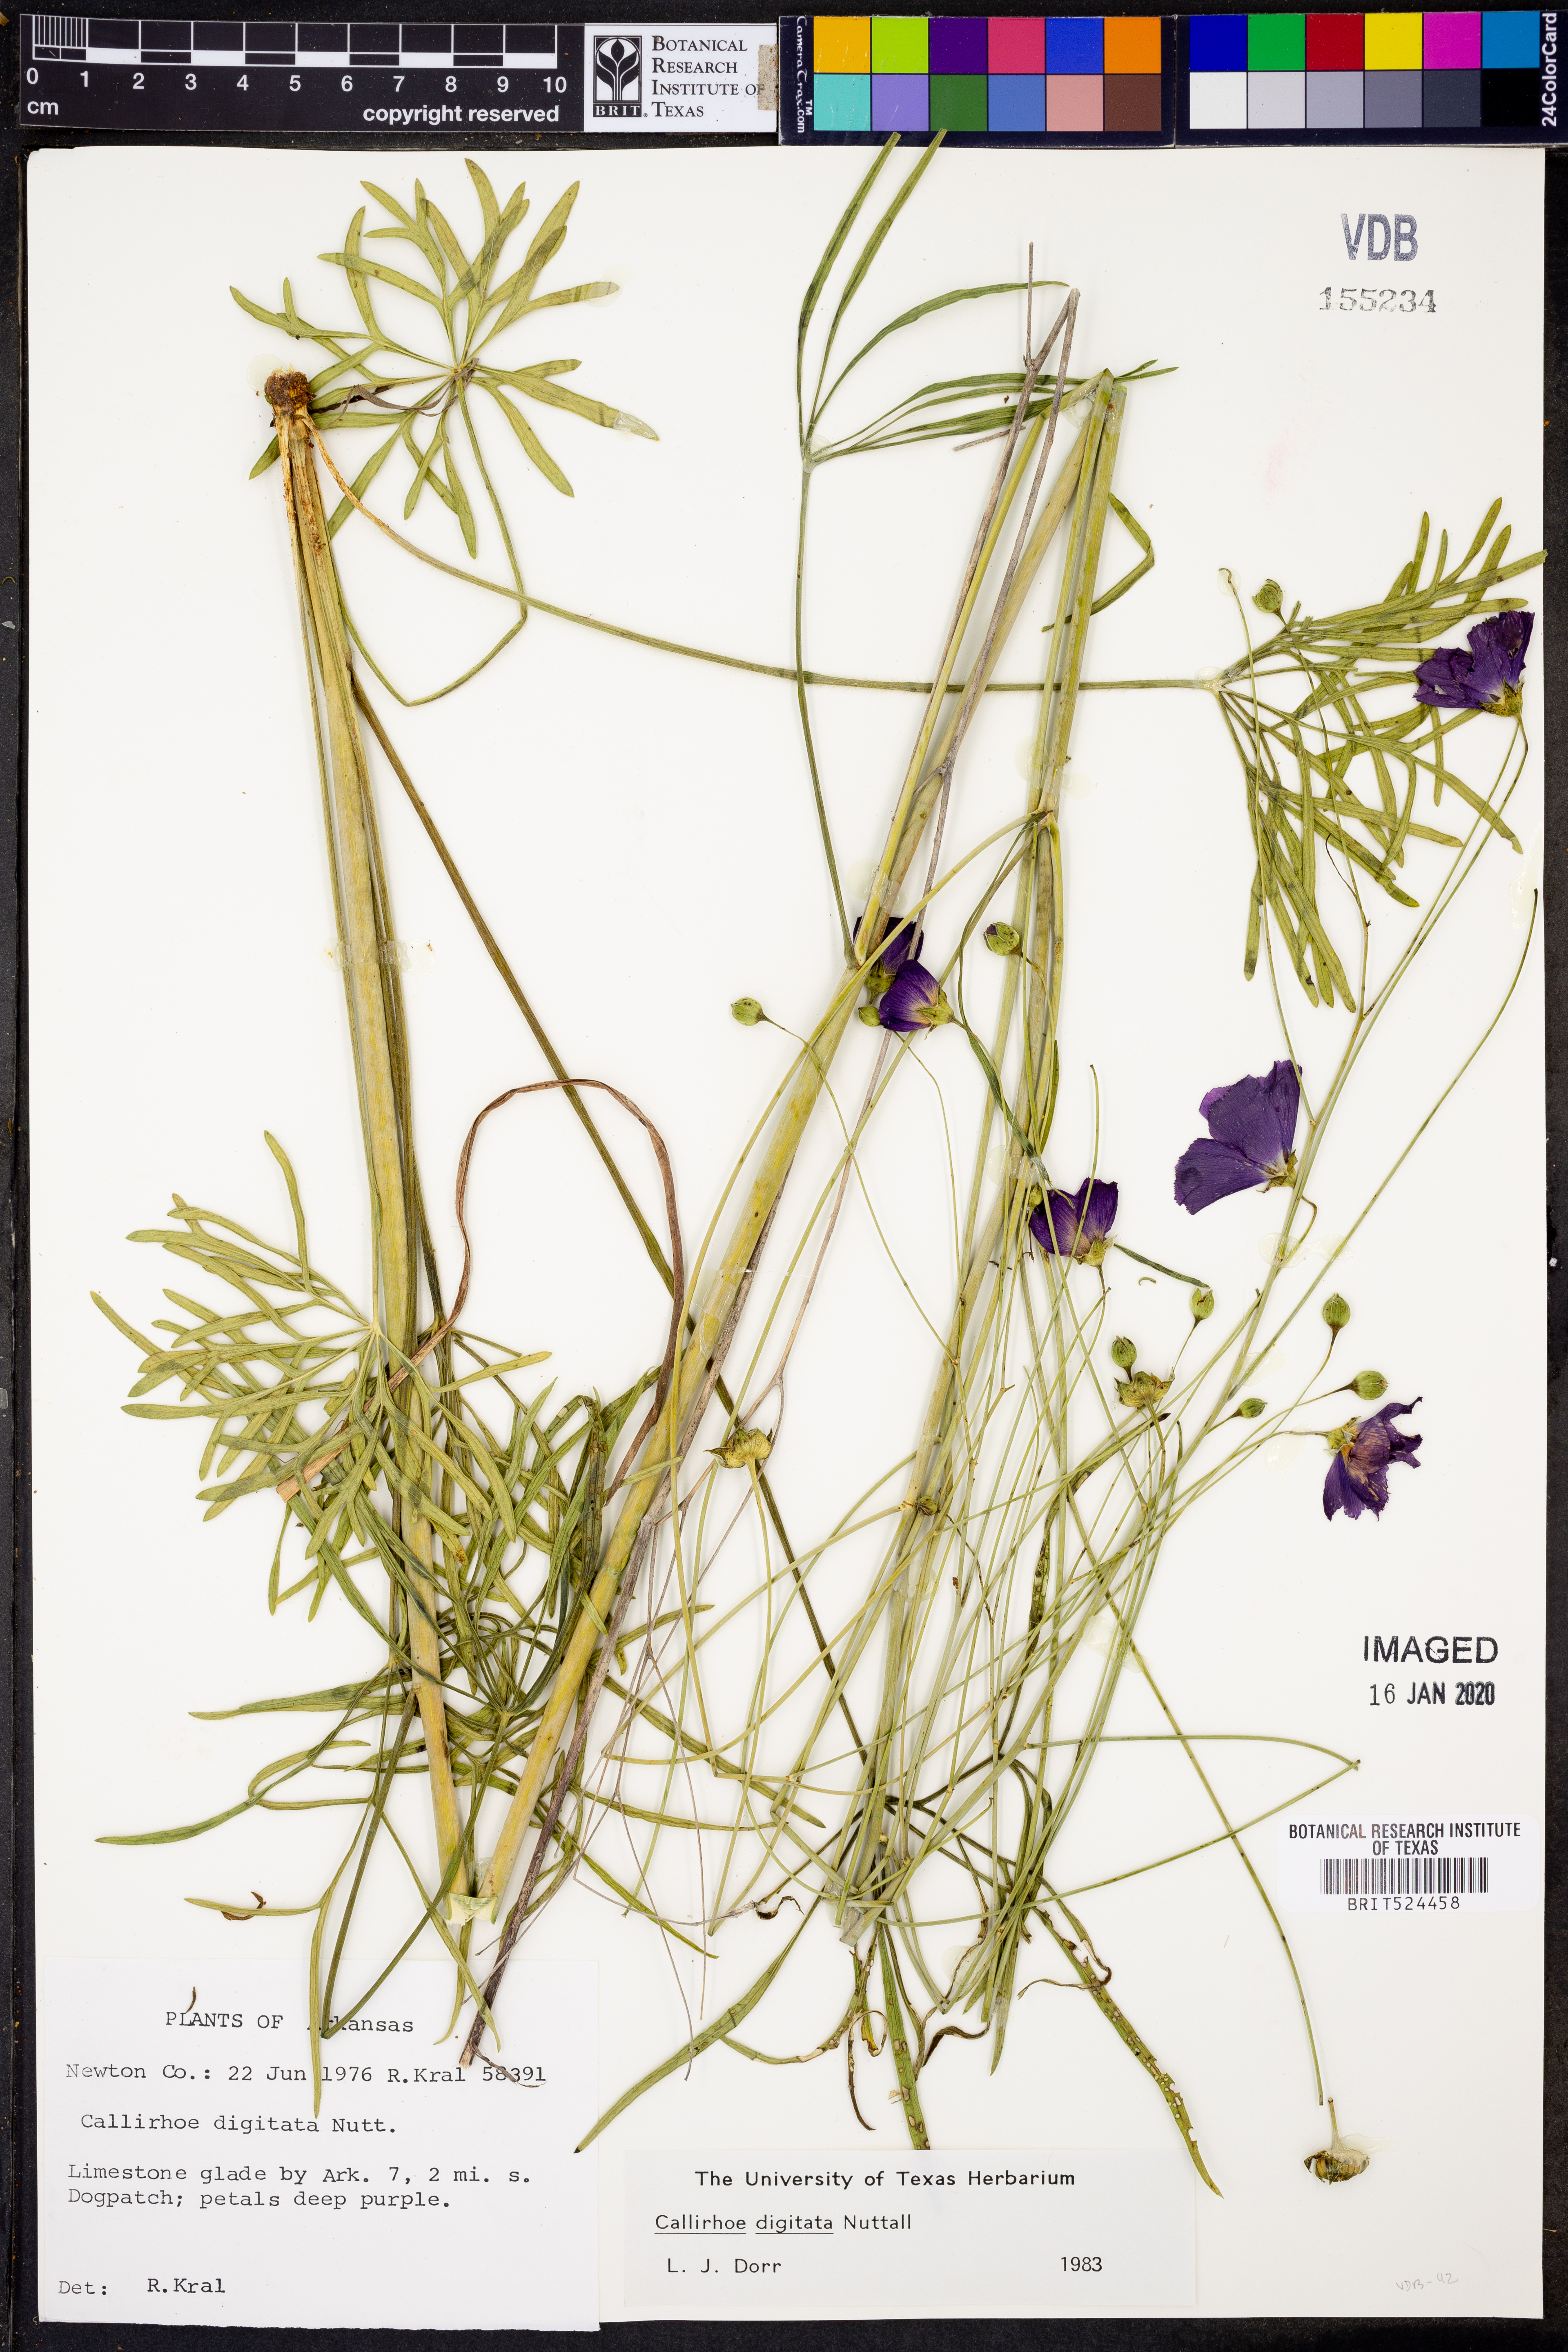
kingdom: Plantae
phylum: Tracheophyta
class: Magnoliopsida
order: Malvales
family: Malvaceae
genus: Callirhoe
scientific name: Callirhoe digitata
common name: Finger poppy-mallow
